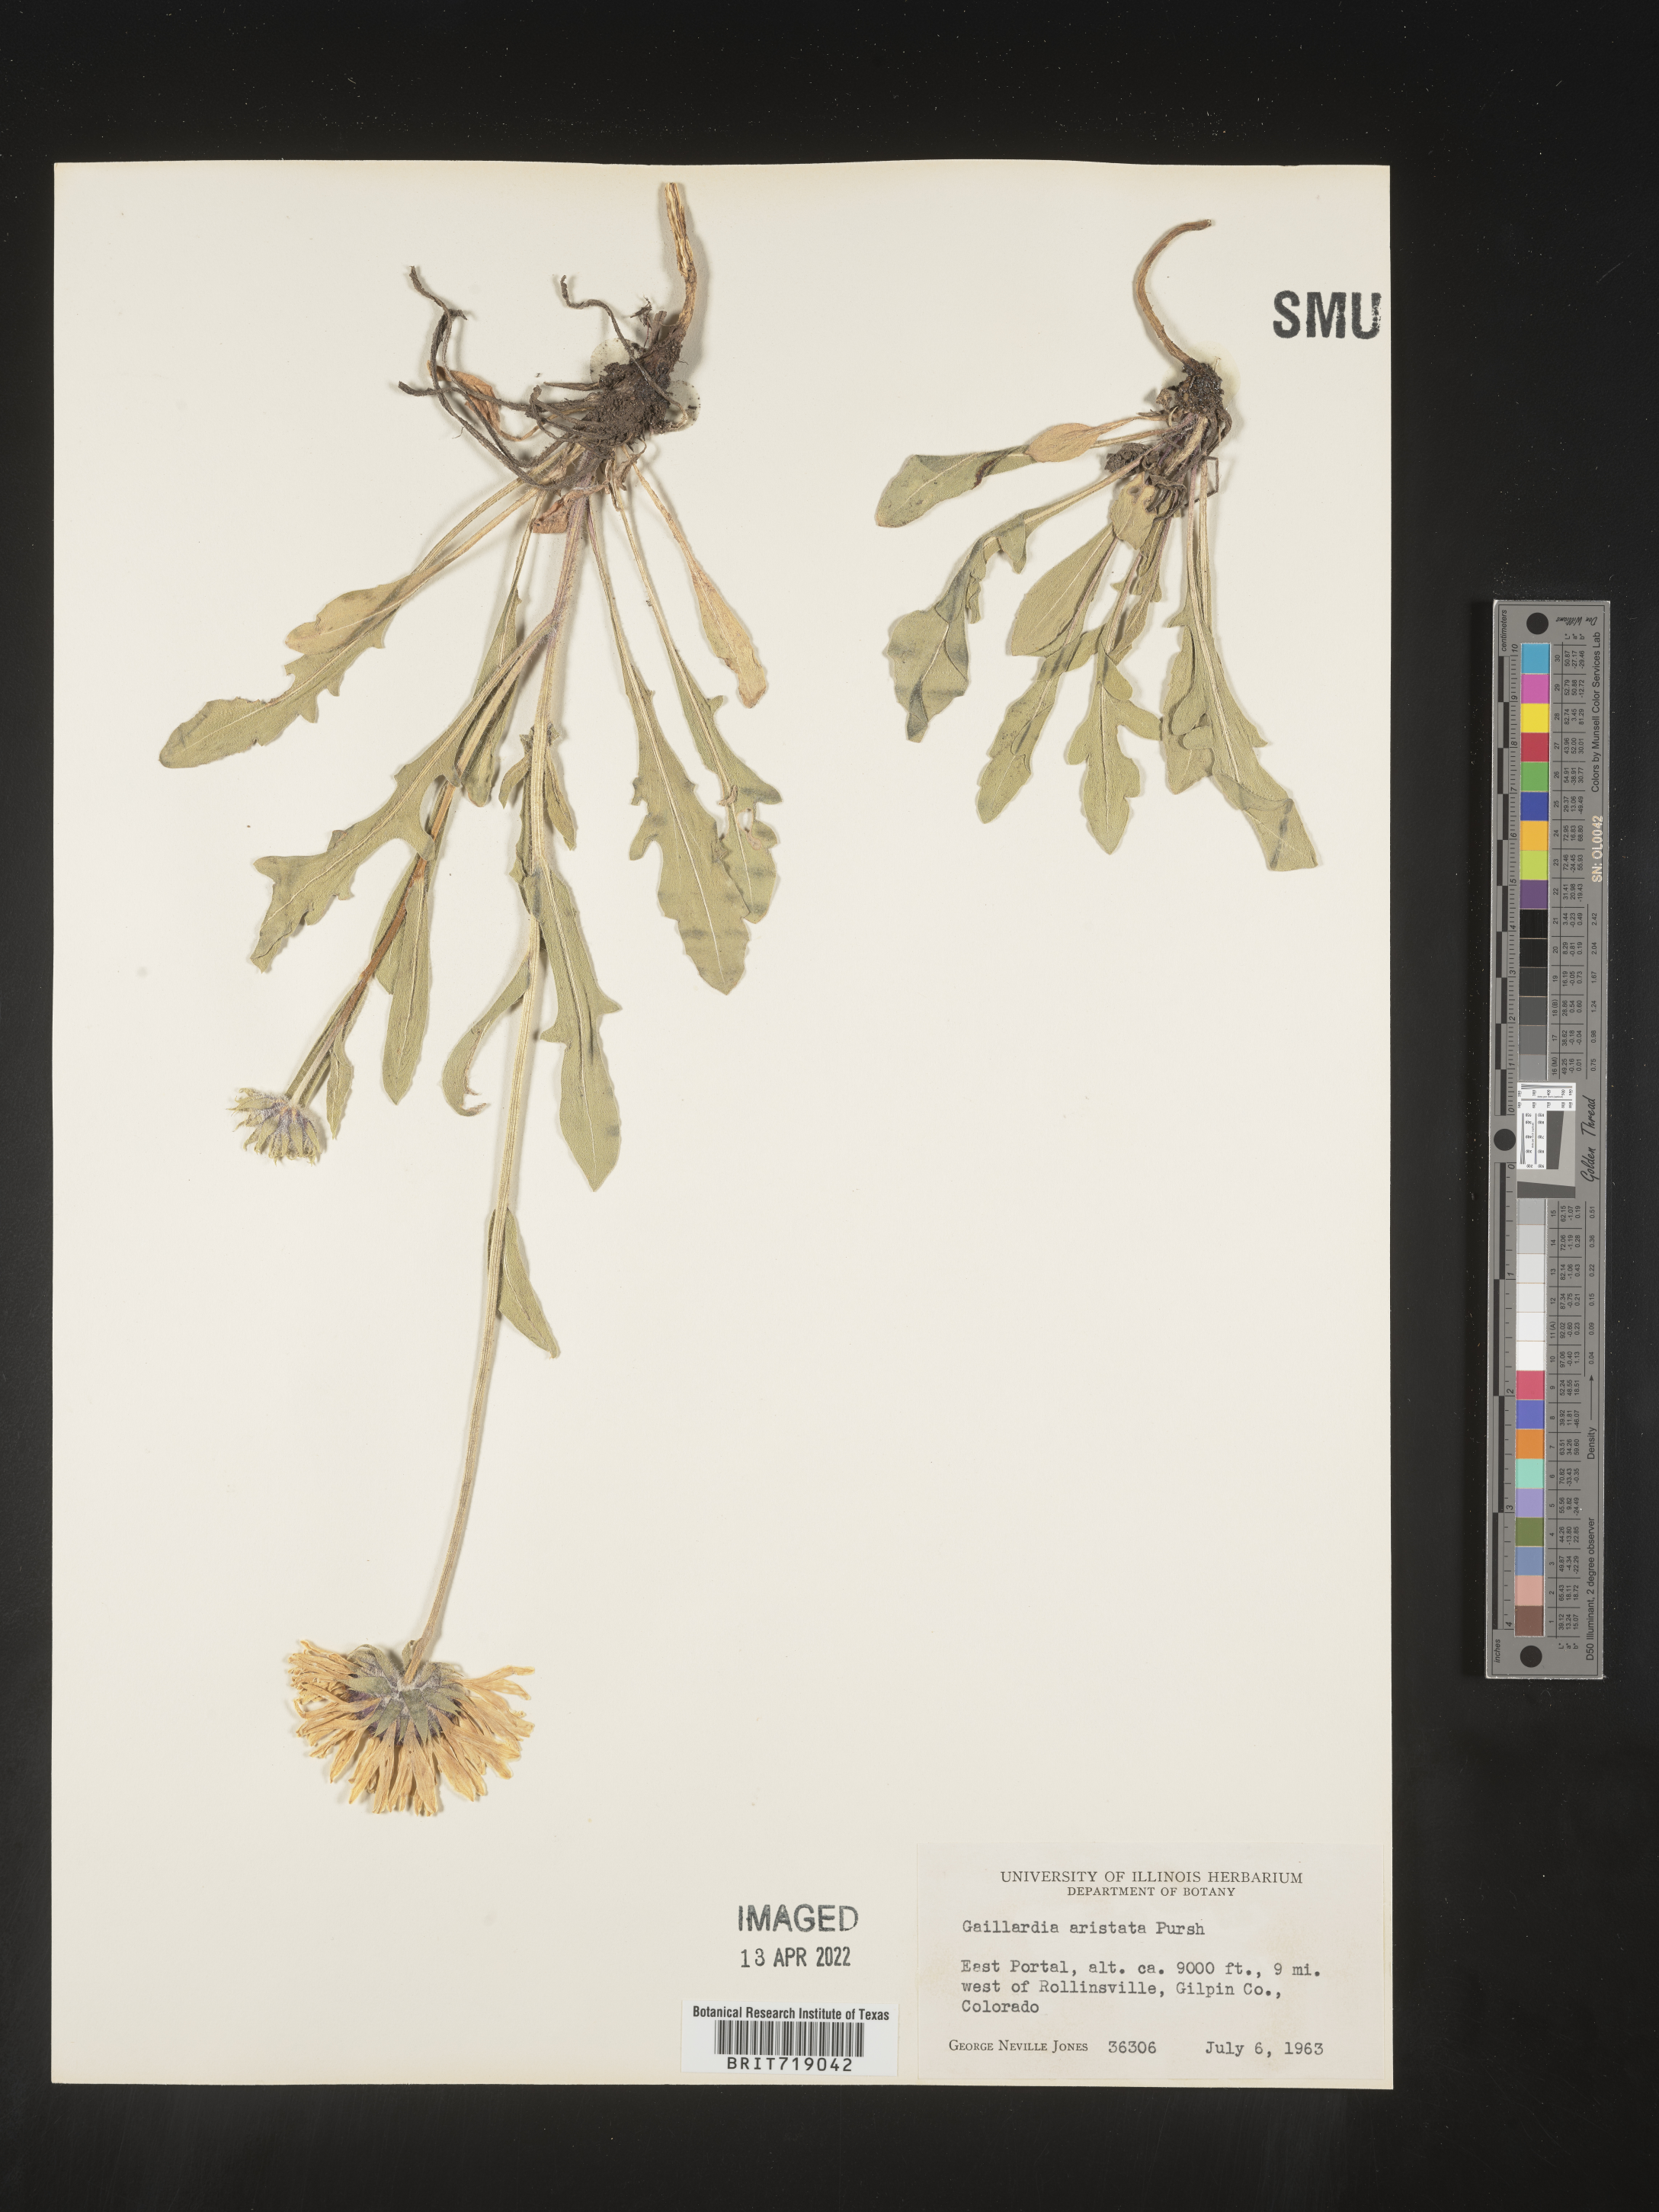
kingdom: Plantae
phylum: Tracheophyta
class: Magnoliopsida
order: Asterales
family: Asteraceae
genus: Gaillardia
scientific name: Gaillardia aristata
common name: Blanket-flower
